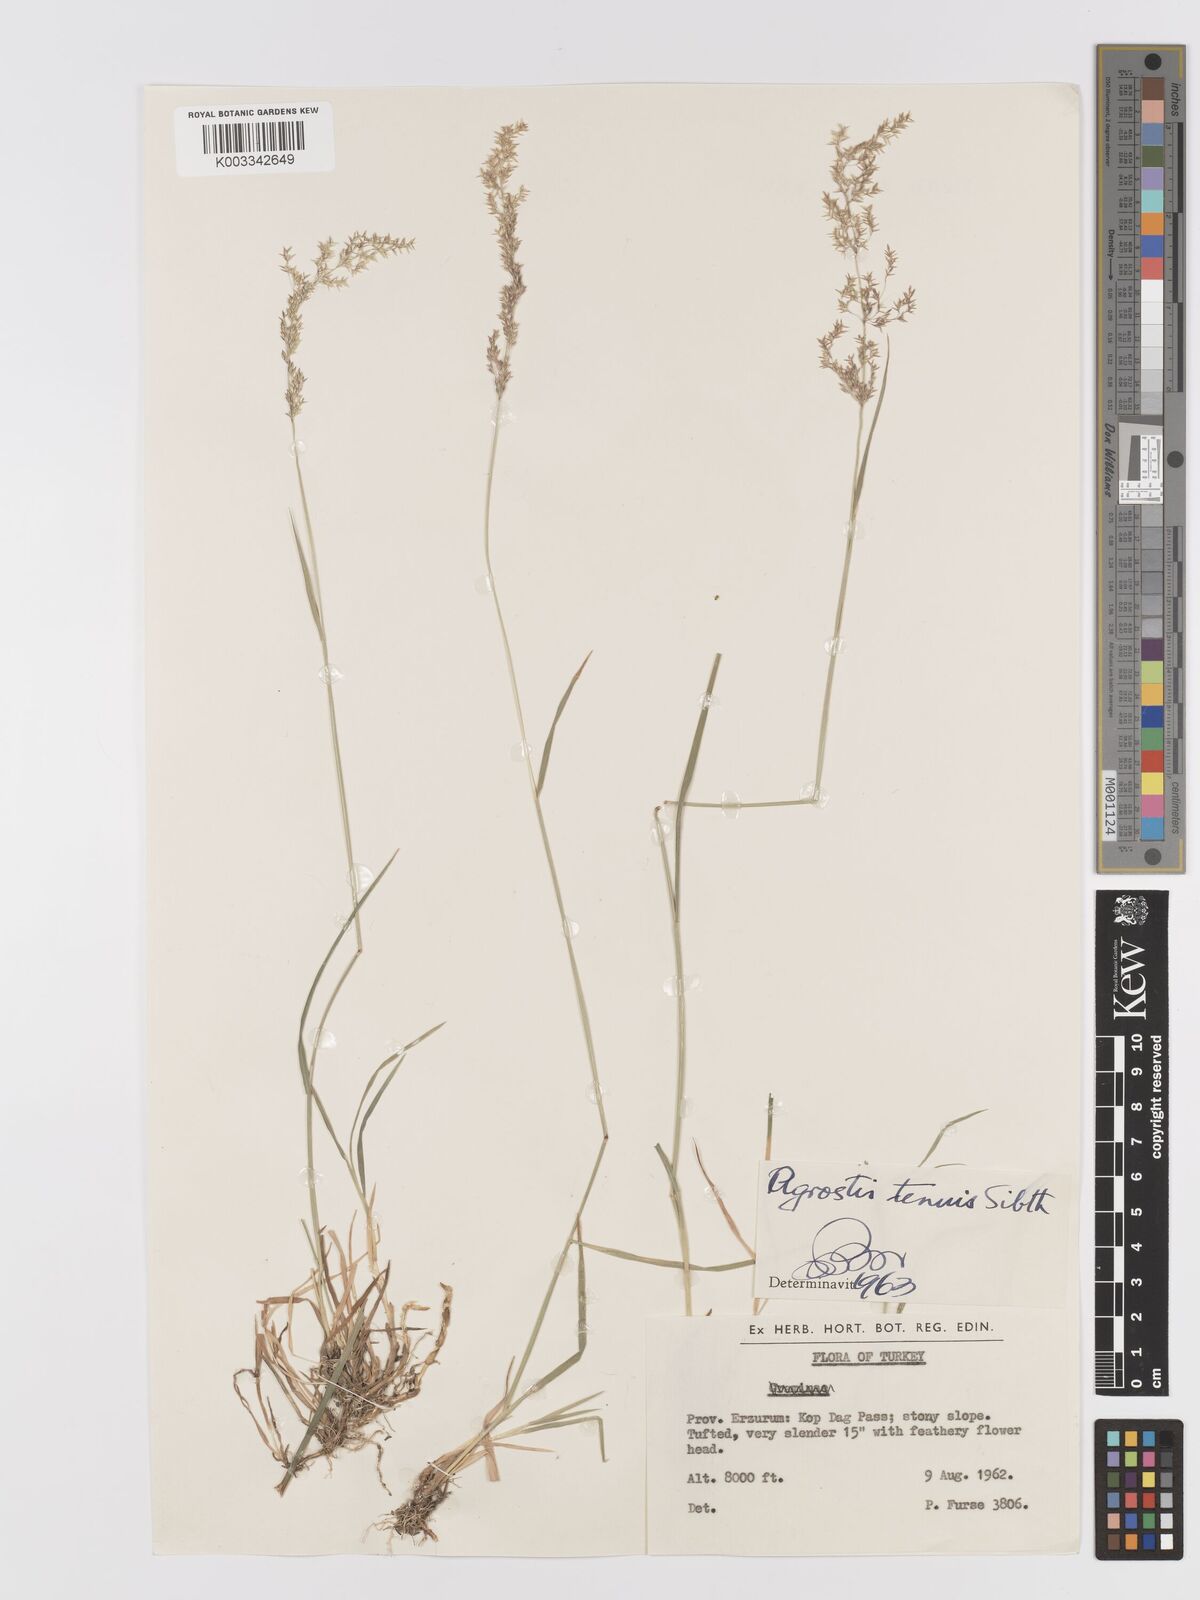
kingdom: Plantae
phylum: Tracheophyta
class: Liliopsida
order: Poales
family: Poaceae
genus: Agrostis
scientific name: Agrostis capillaris
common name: Colonial bentgrass
